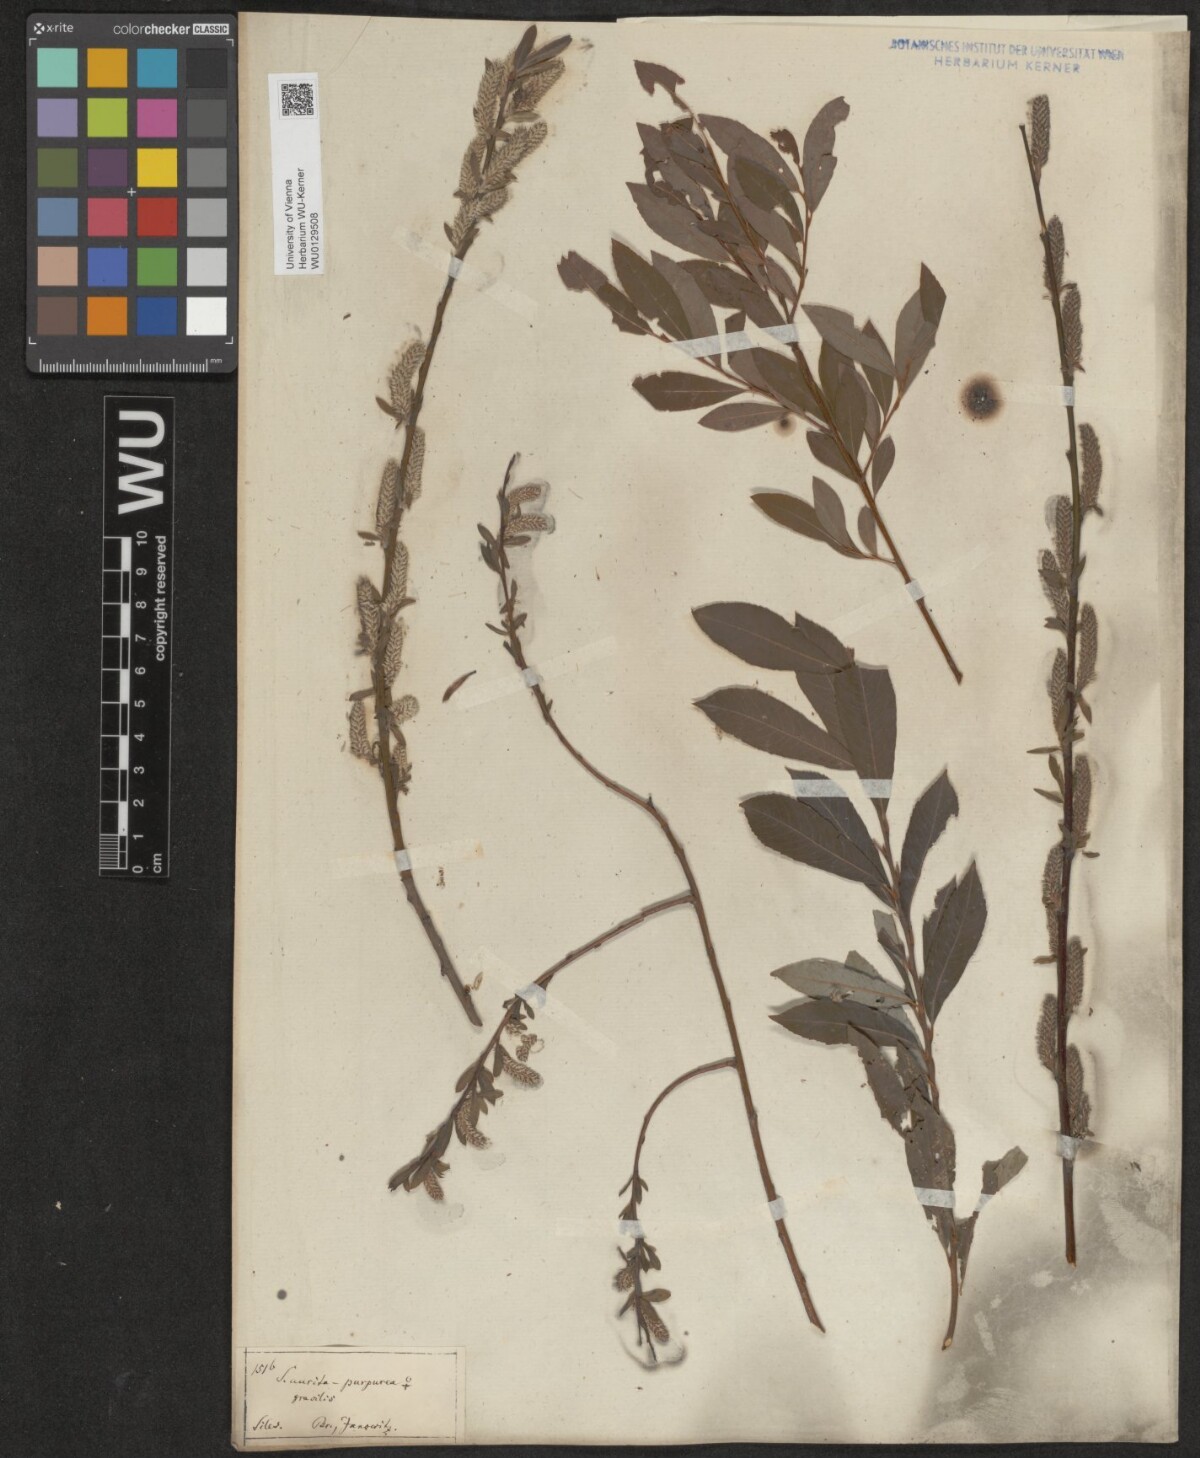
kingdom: Plantae
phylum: Tracheophyta
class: Magnoliopsida
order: Malpighiales
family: Salicaceae
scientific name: Salicaceae
